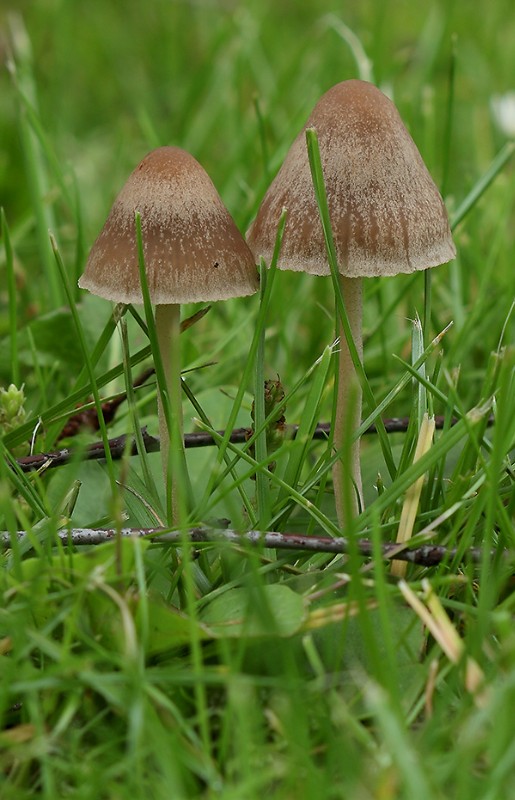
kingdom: Fungi
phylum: Basidiomycota
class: Agaricomycetes
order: Agaricales
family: Bolbitiaceae
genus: Panaeolina
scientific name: Panaeolina foenisecii
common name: høslætsvamp
